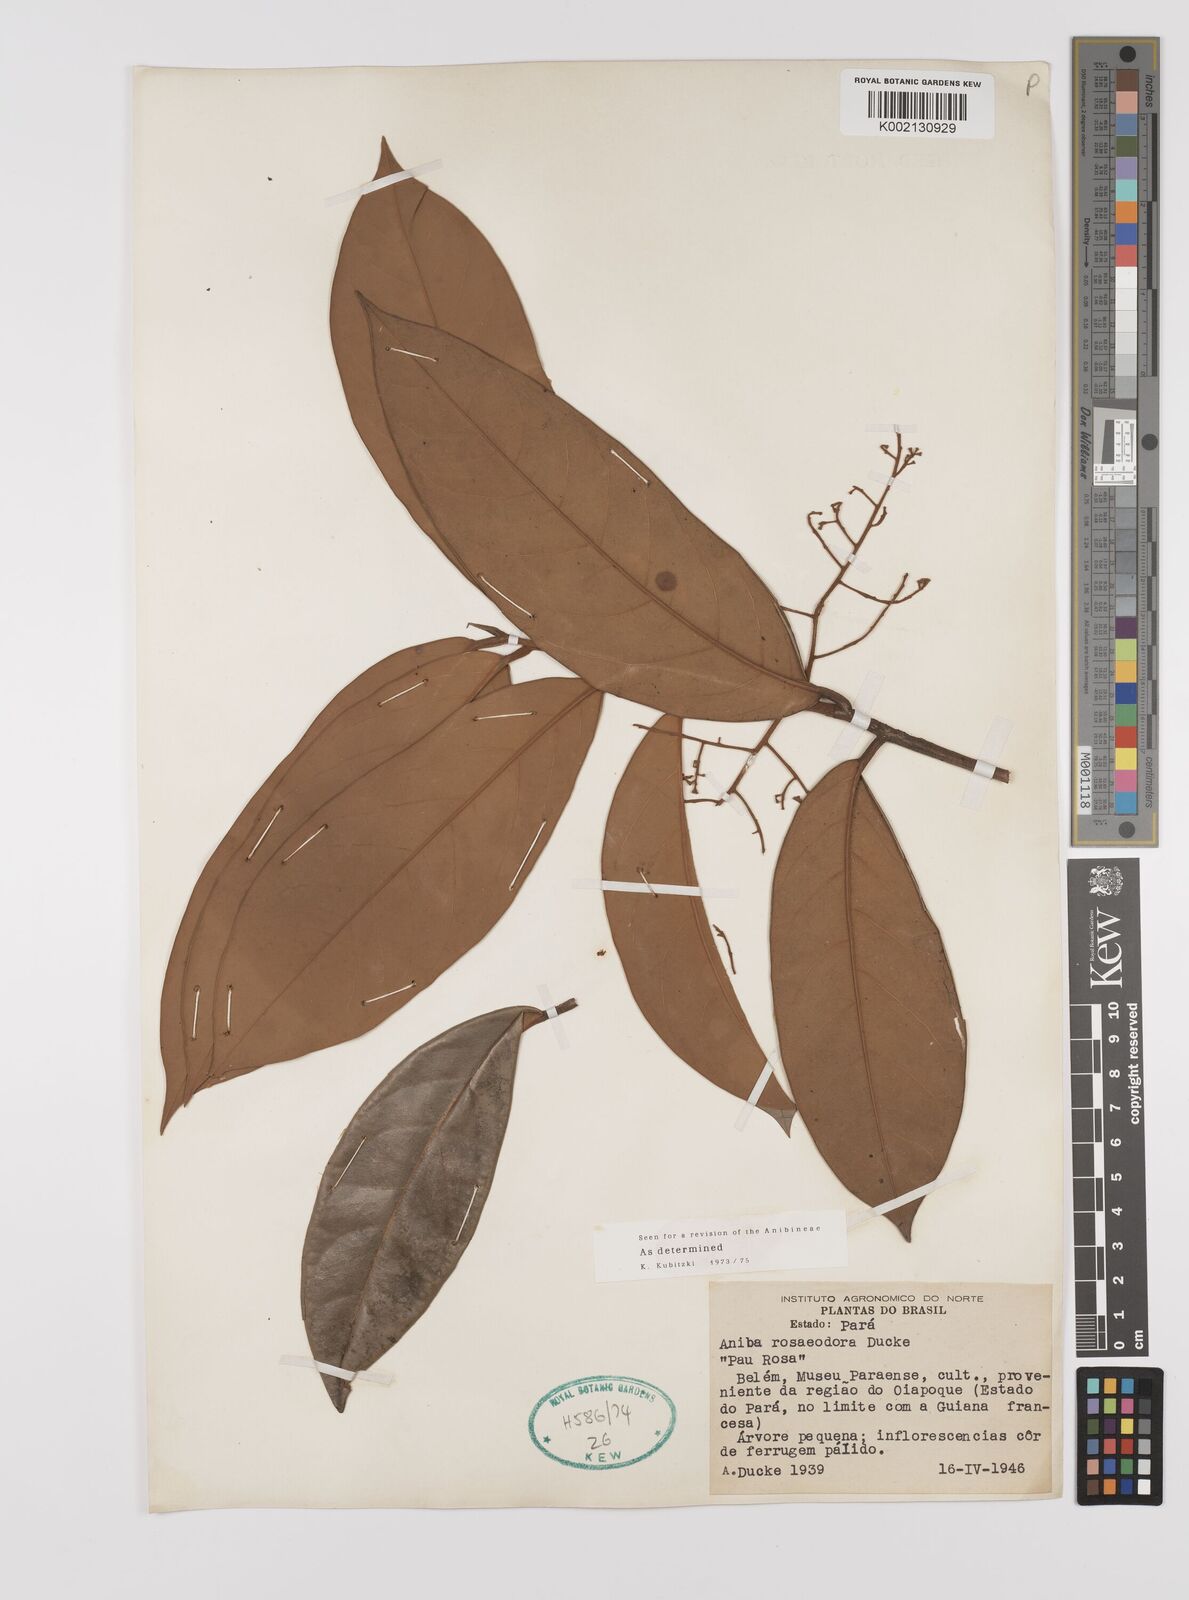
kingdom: Plantae
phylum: Tracheophyta
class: Magnoliopsida
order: Laurales
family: Lauraceae
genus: Aniba
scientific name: Aniba rosodora
